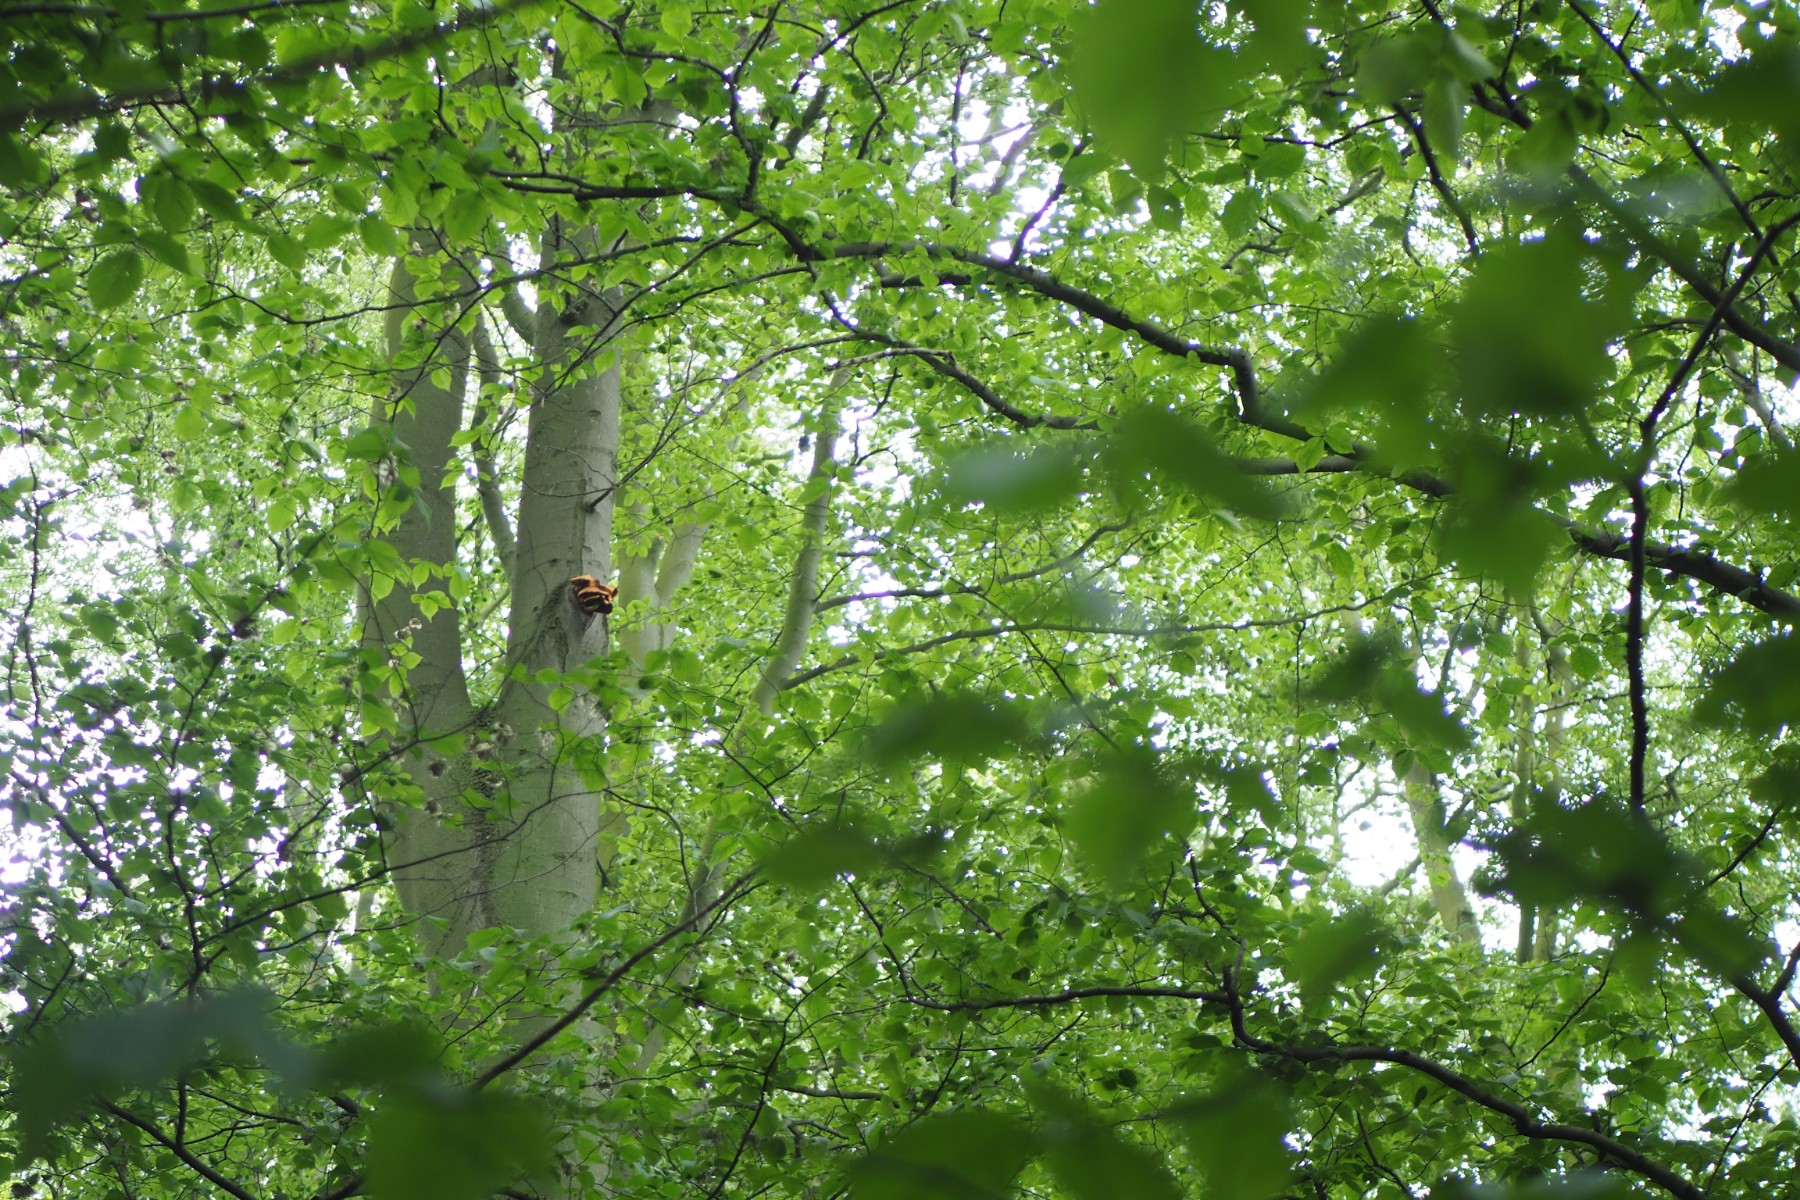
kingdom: Fungi
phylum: Basidiomycota
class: Agaricomycetes
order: Agaricales
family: Strophariaceae
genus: Pholiota
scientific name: Pholiota adiposa
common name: højtsiddende skælhat
